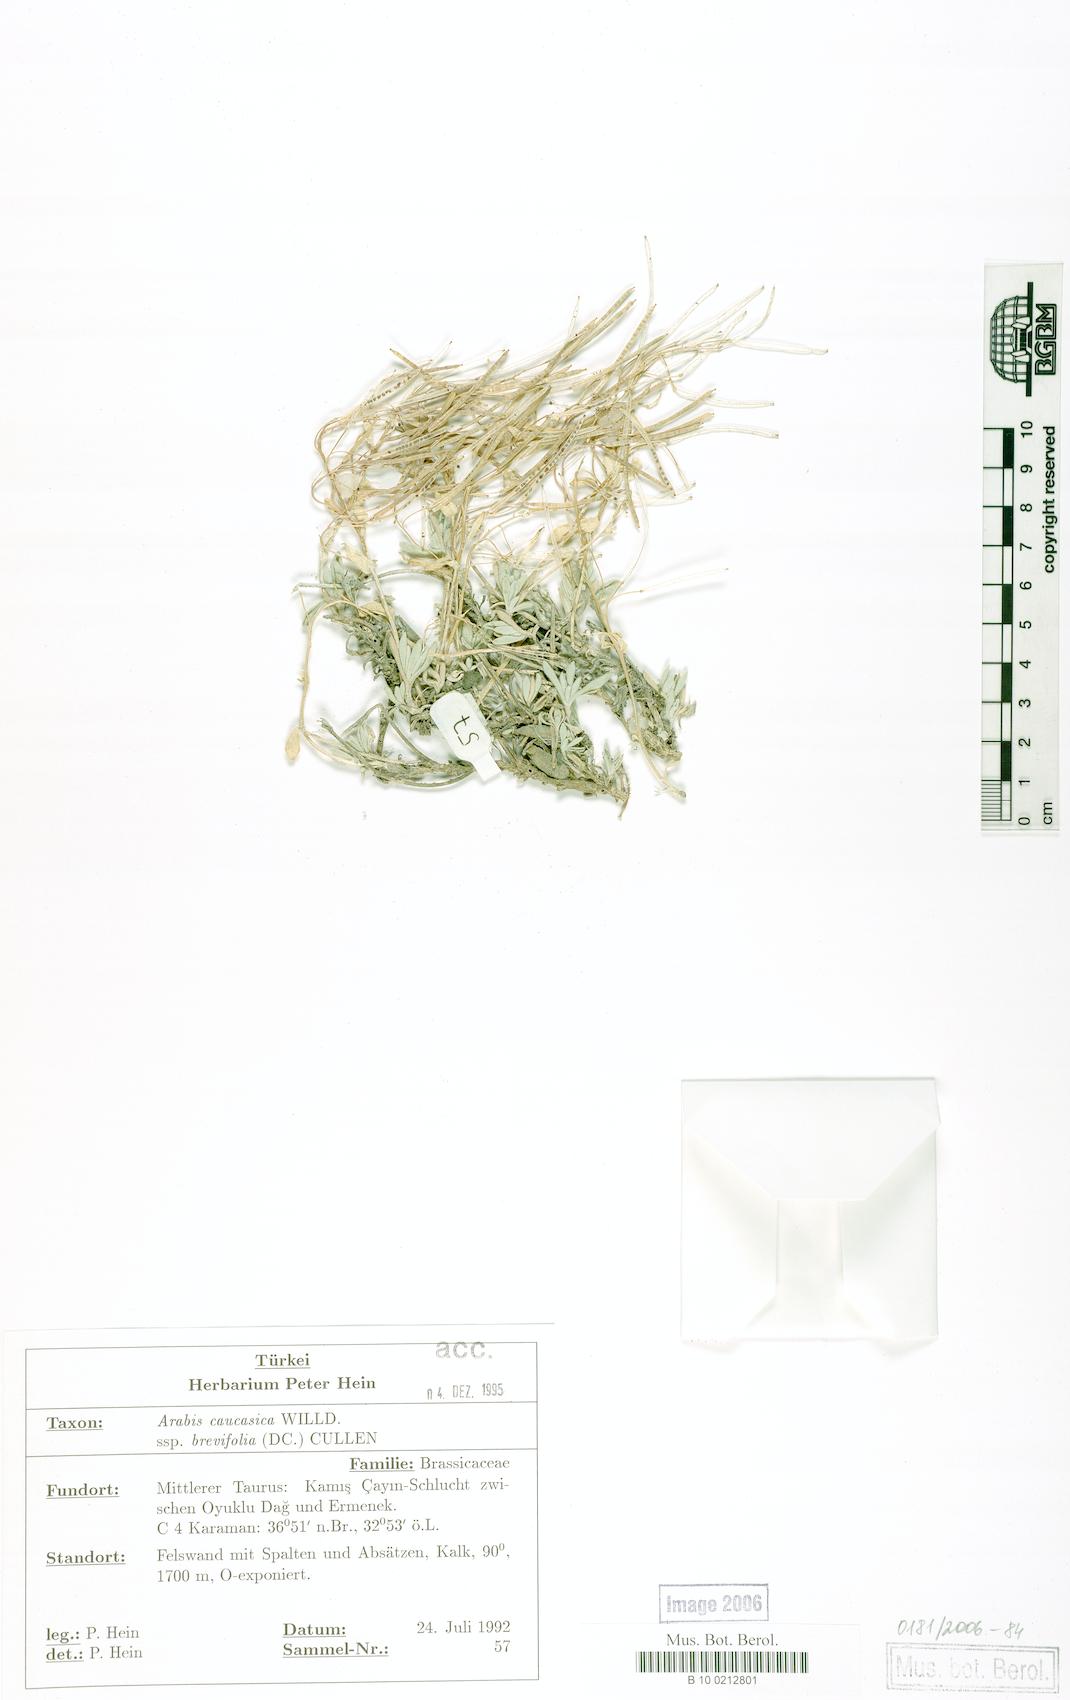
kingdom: Plantae
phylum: Tracheophyta
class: Magnoliopsida
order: Brassicales
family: Brassicaceae
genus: Arabis
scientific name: Arabis caucasica
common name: Gray rockcress
